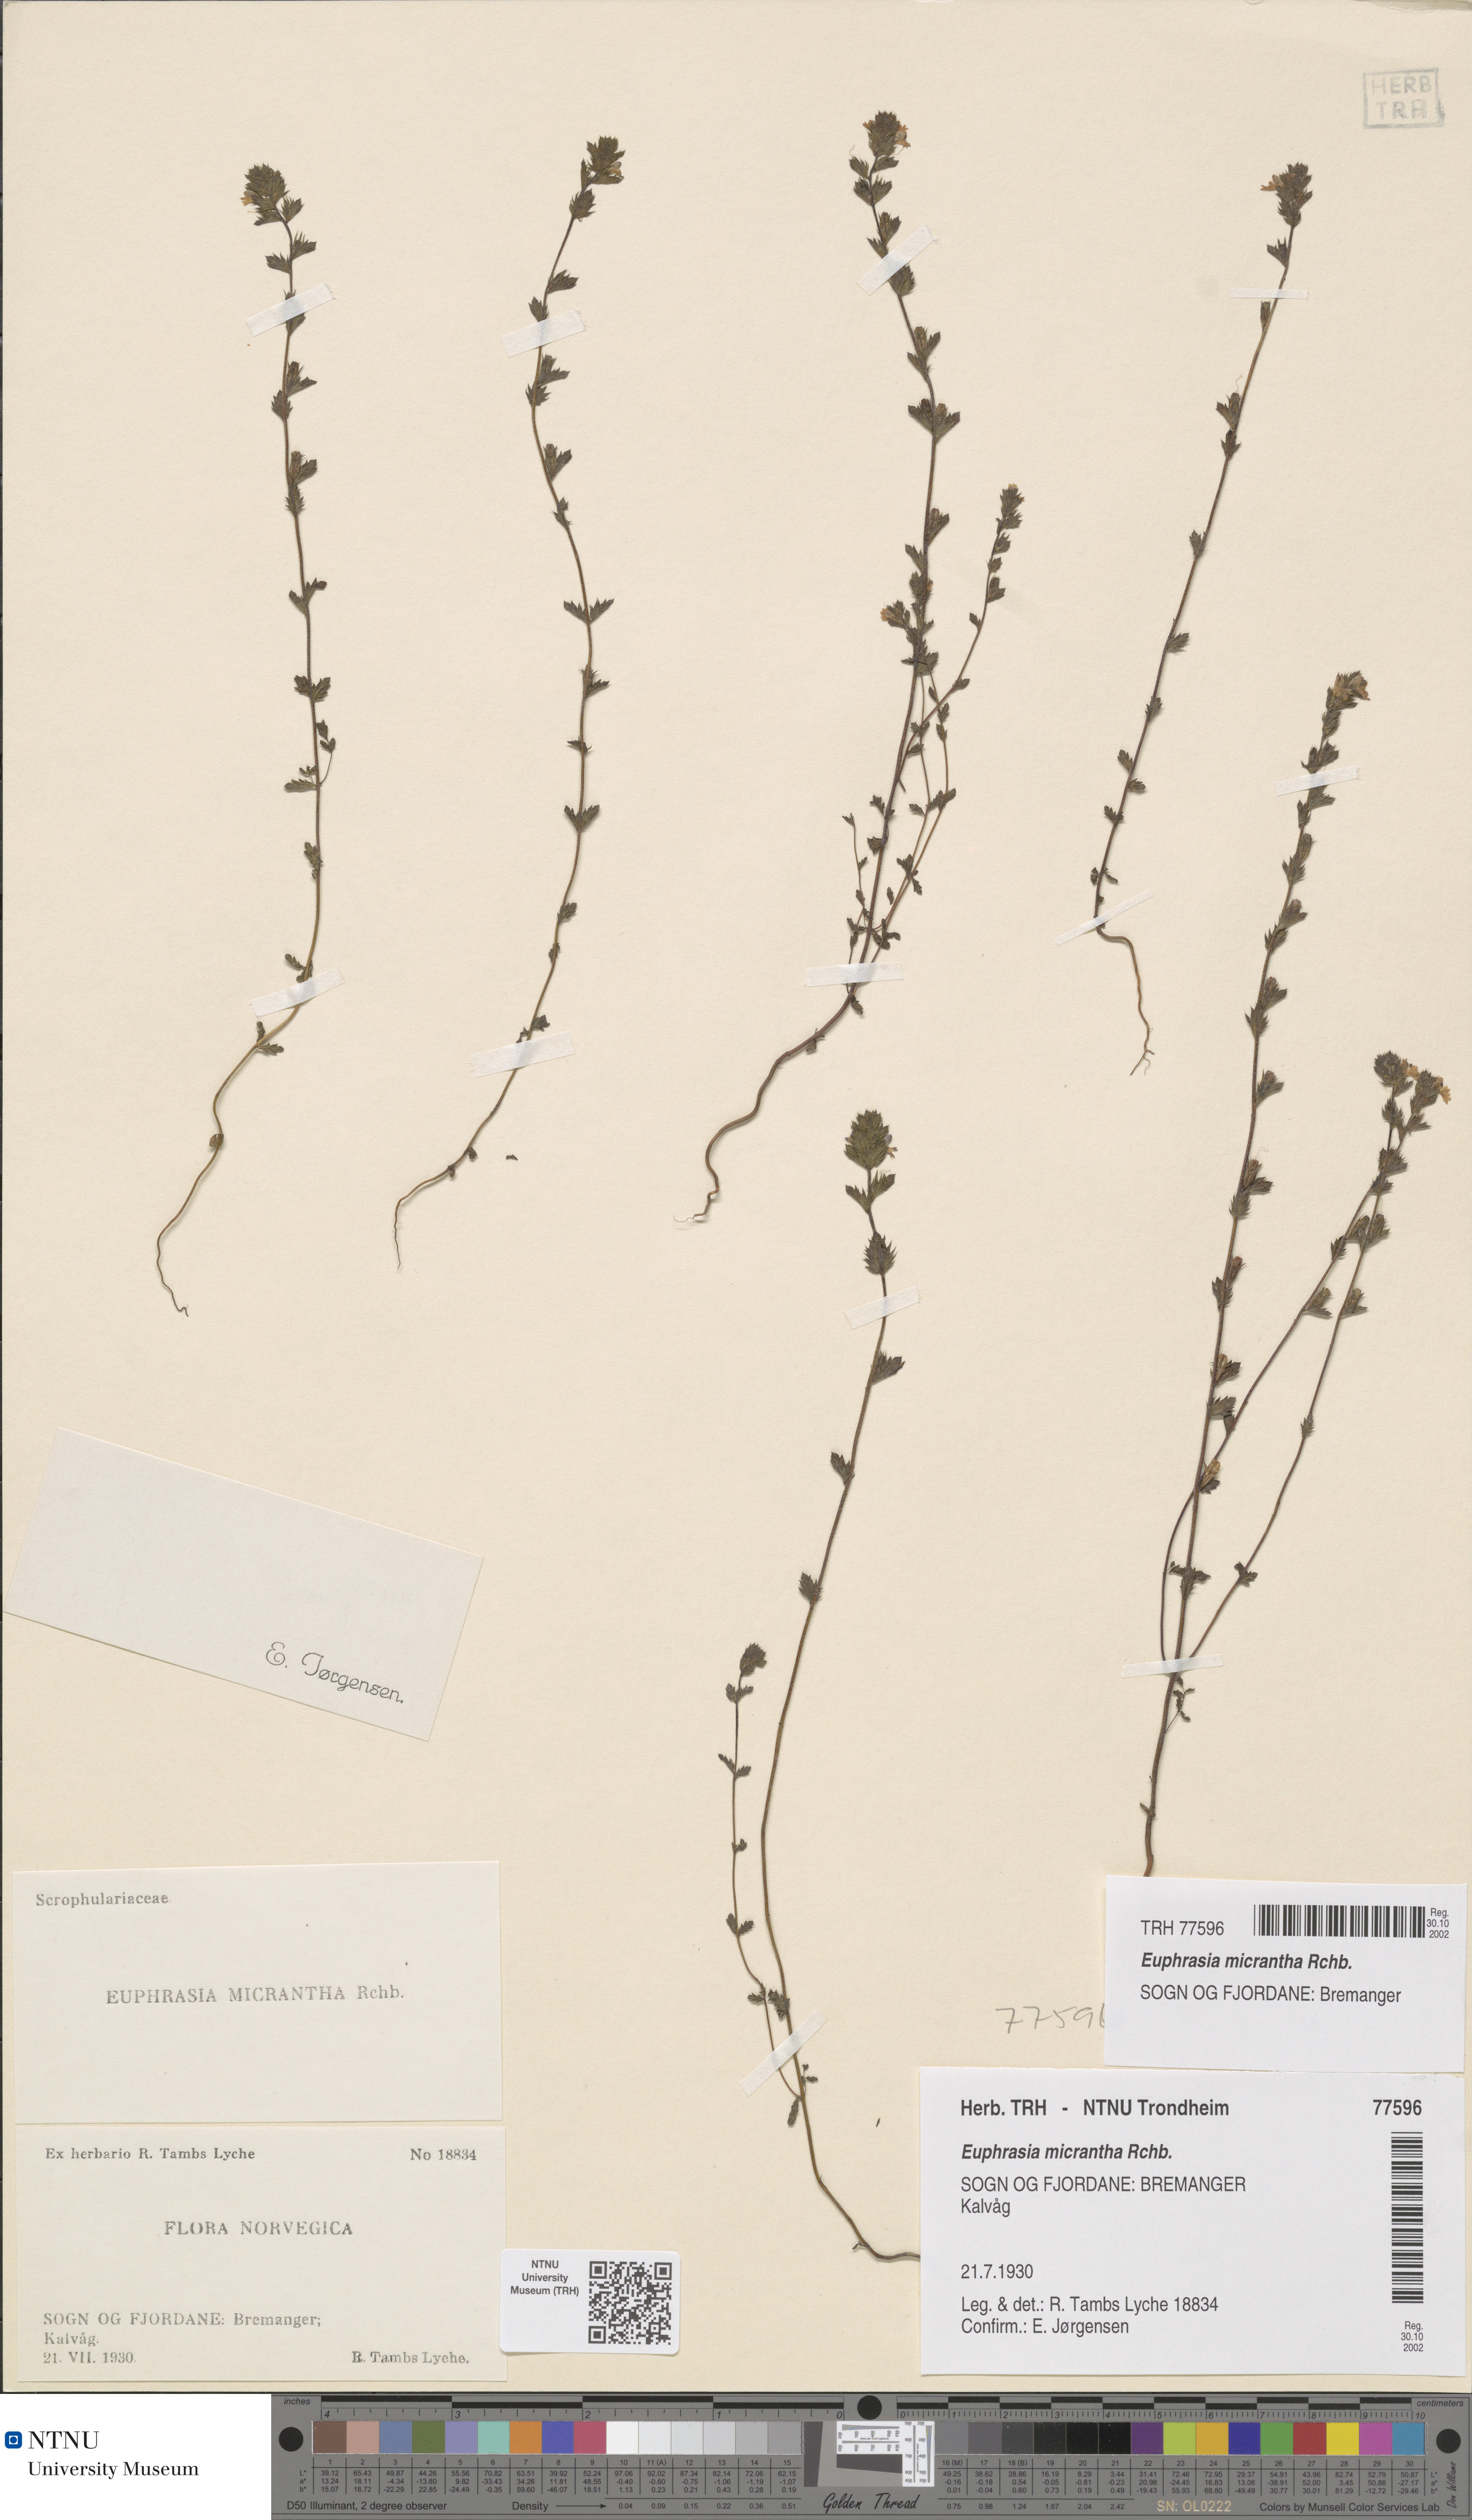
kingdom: Plantae
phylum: Tracheophyta
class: Magnoliopsida
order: Lamiales
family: Orobanchaceae
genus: Euphrasia
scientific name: Euphrasia micrantha
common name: Northern eyebright
